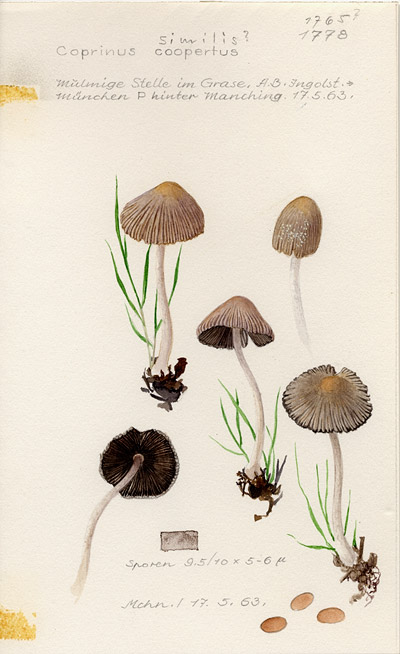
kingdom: Fungi
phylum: Basidiomycota
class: Agaricomycetes
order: Agaricales
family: Psathyrellaceae
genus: Coprinellus
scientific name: Coprinellus radians
